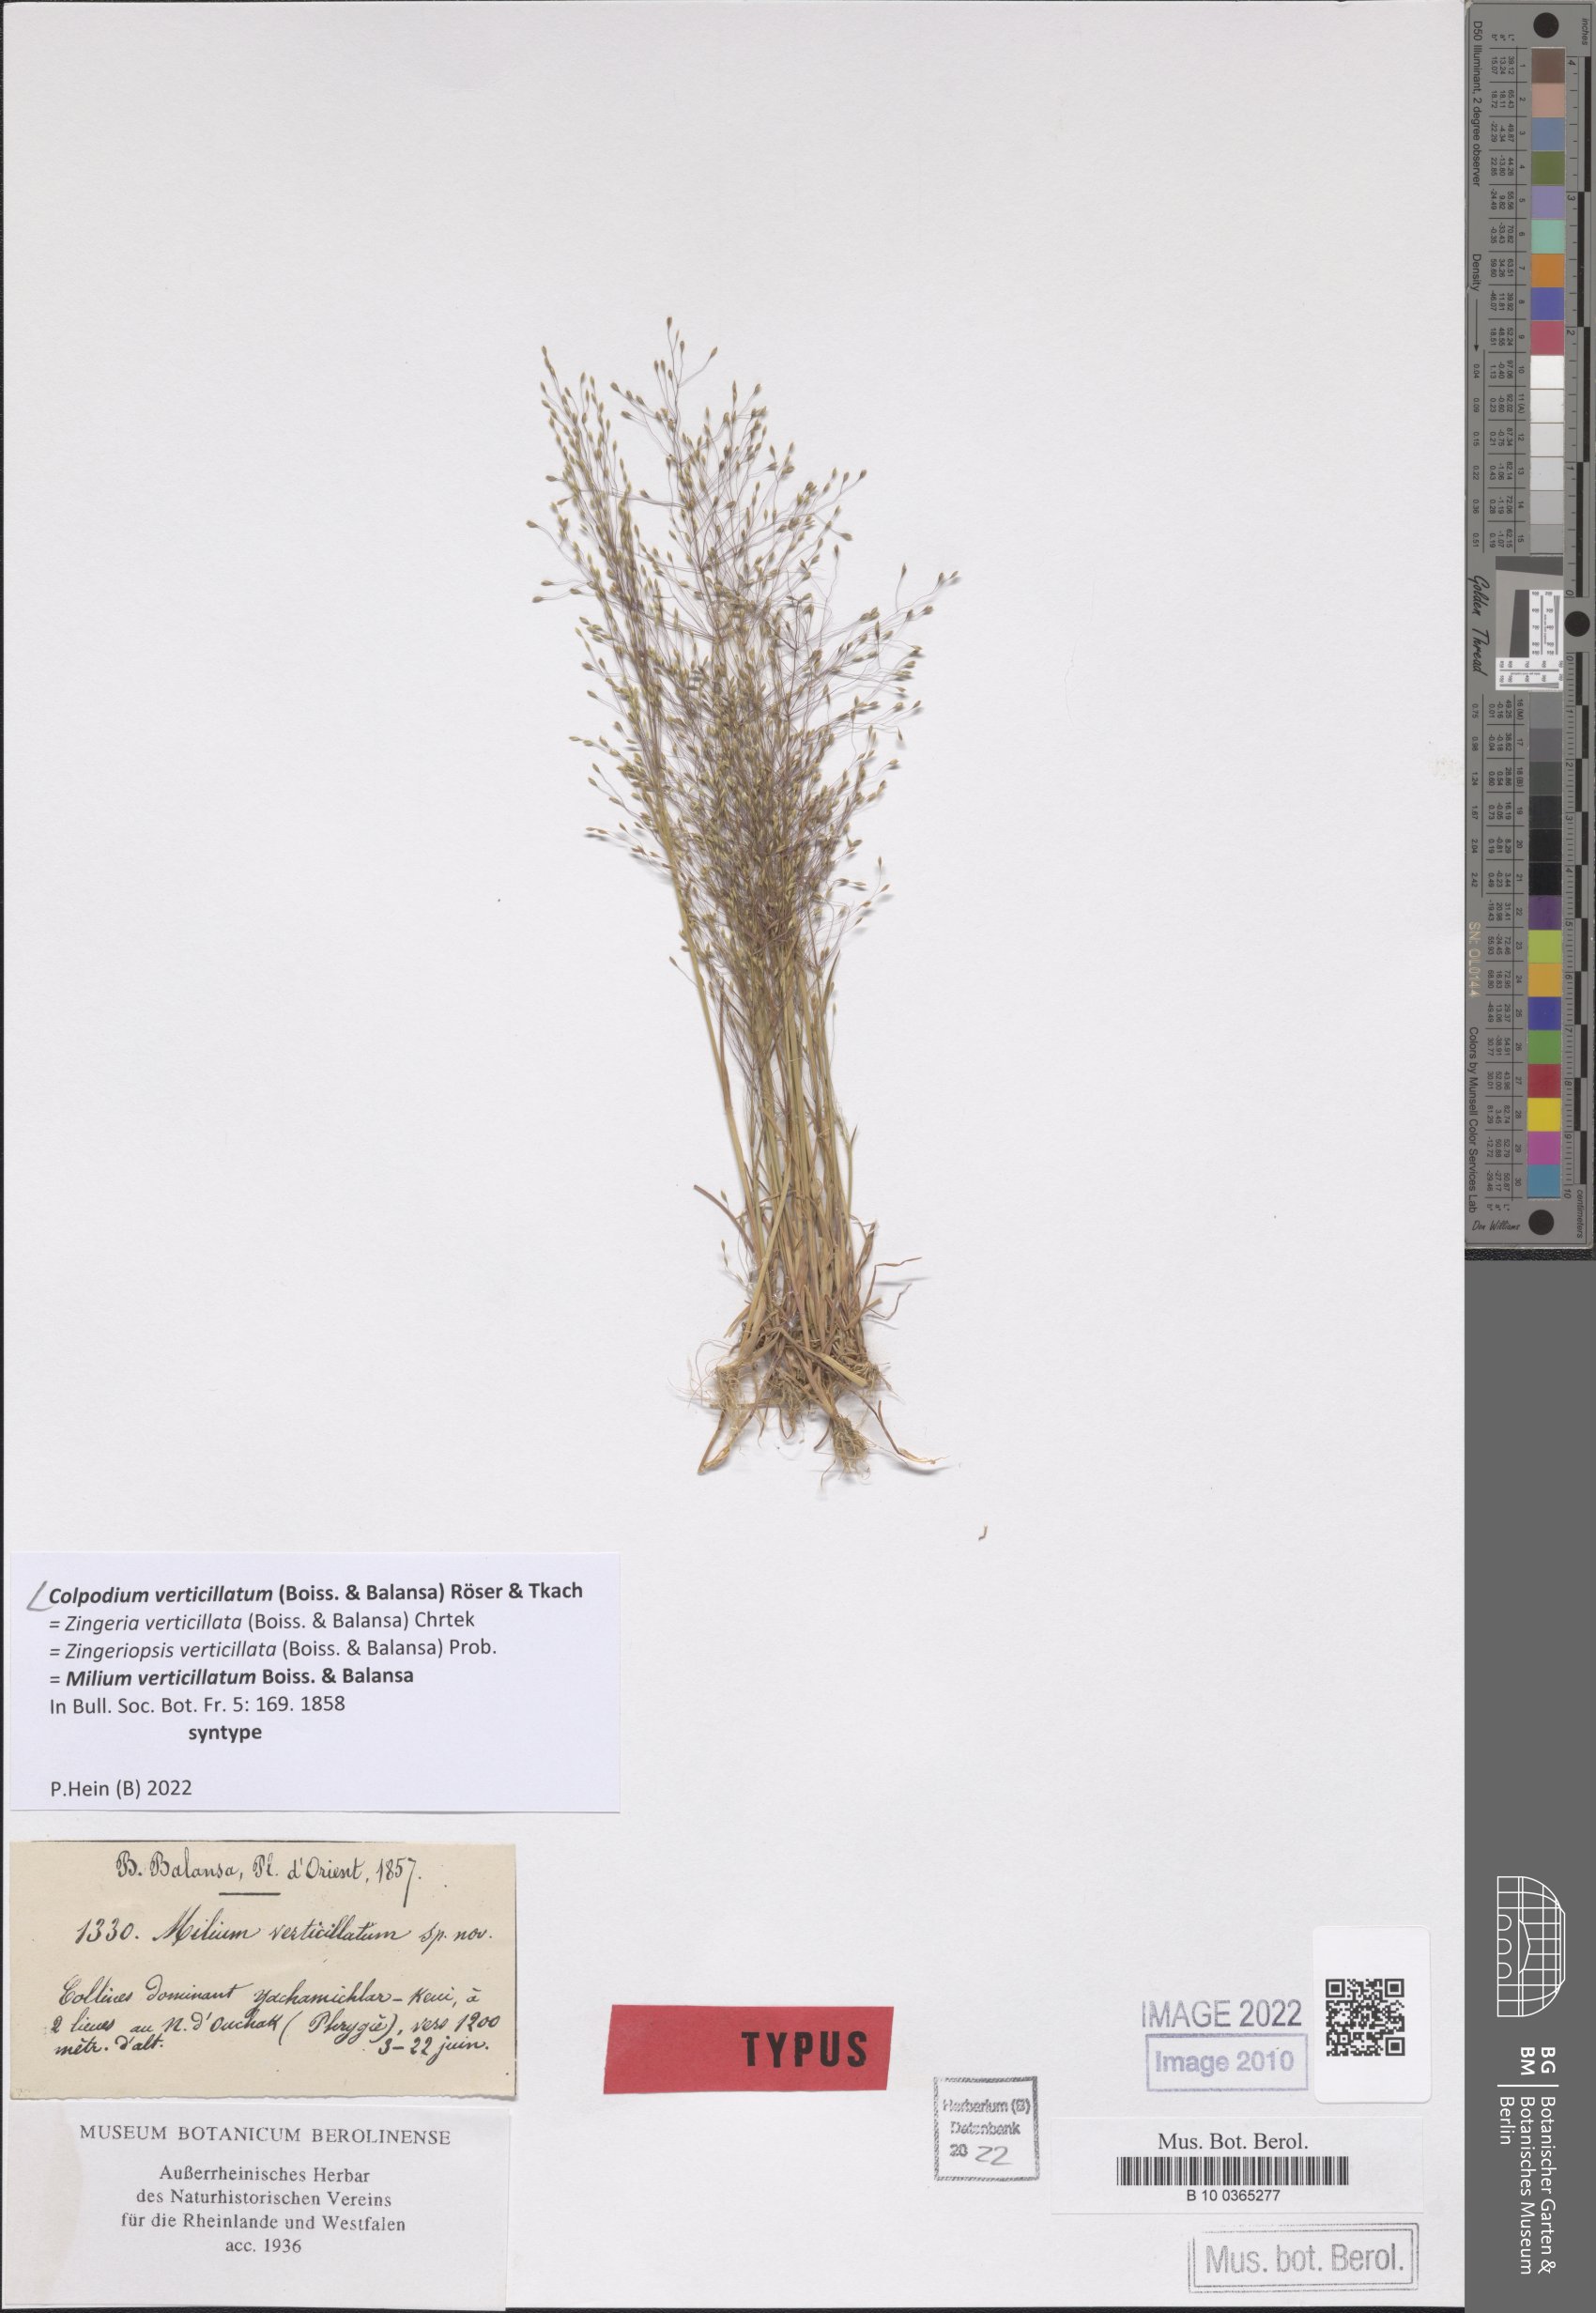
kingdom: Plantae
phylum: Tracheophyta
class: Liliopsida
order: Poales
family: Poaceae
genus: Colpodium
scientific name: Colpodium verticillatum
